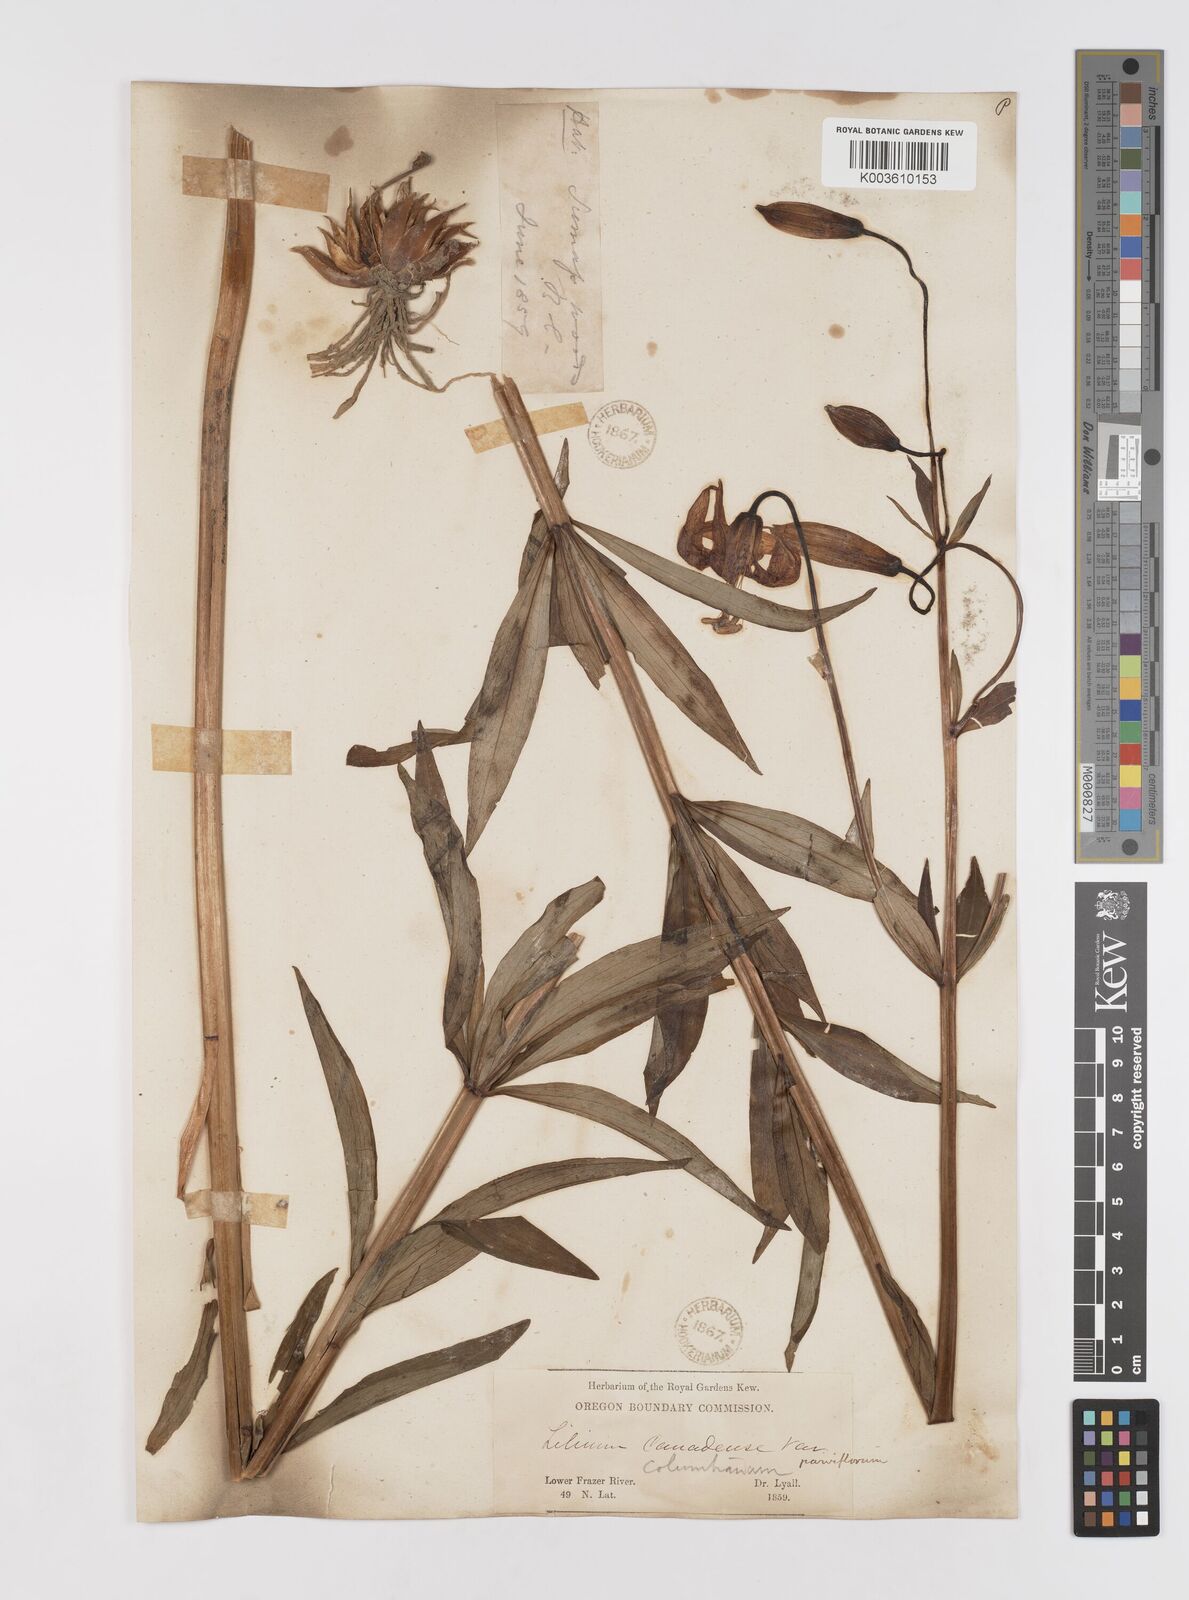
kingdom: Plantae
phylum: Tracheophyta
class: Liliopsida
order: Liliales
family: Liliaceae
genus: Lilium
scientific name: Lilium columbianum
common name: Columbia lily
